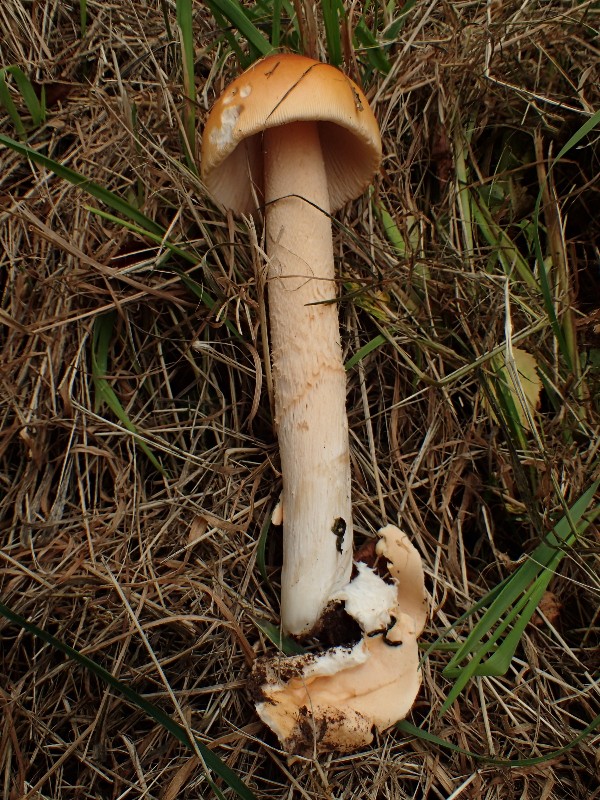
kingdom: Fungi
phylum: Basidiomycota
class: Agaricomycetes
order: Agaricales
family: Amanitaceae
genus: Amanita
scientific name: Amanita crocea
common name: gylden kam-fluesvamp
